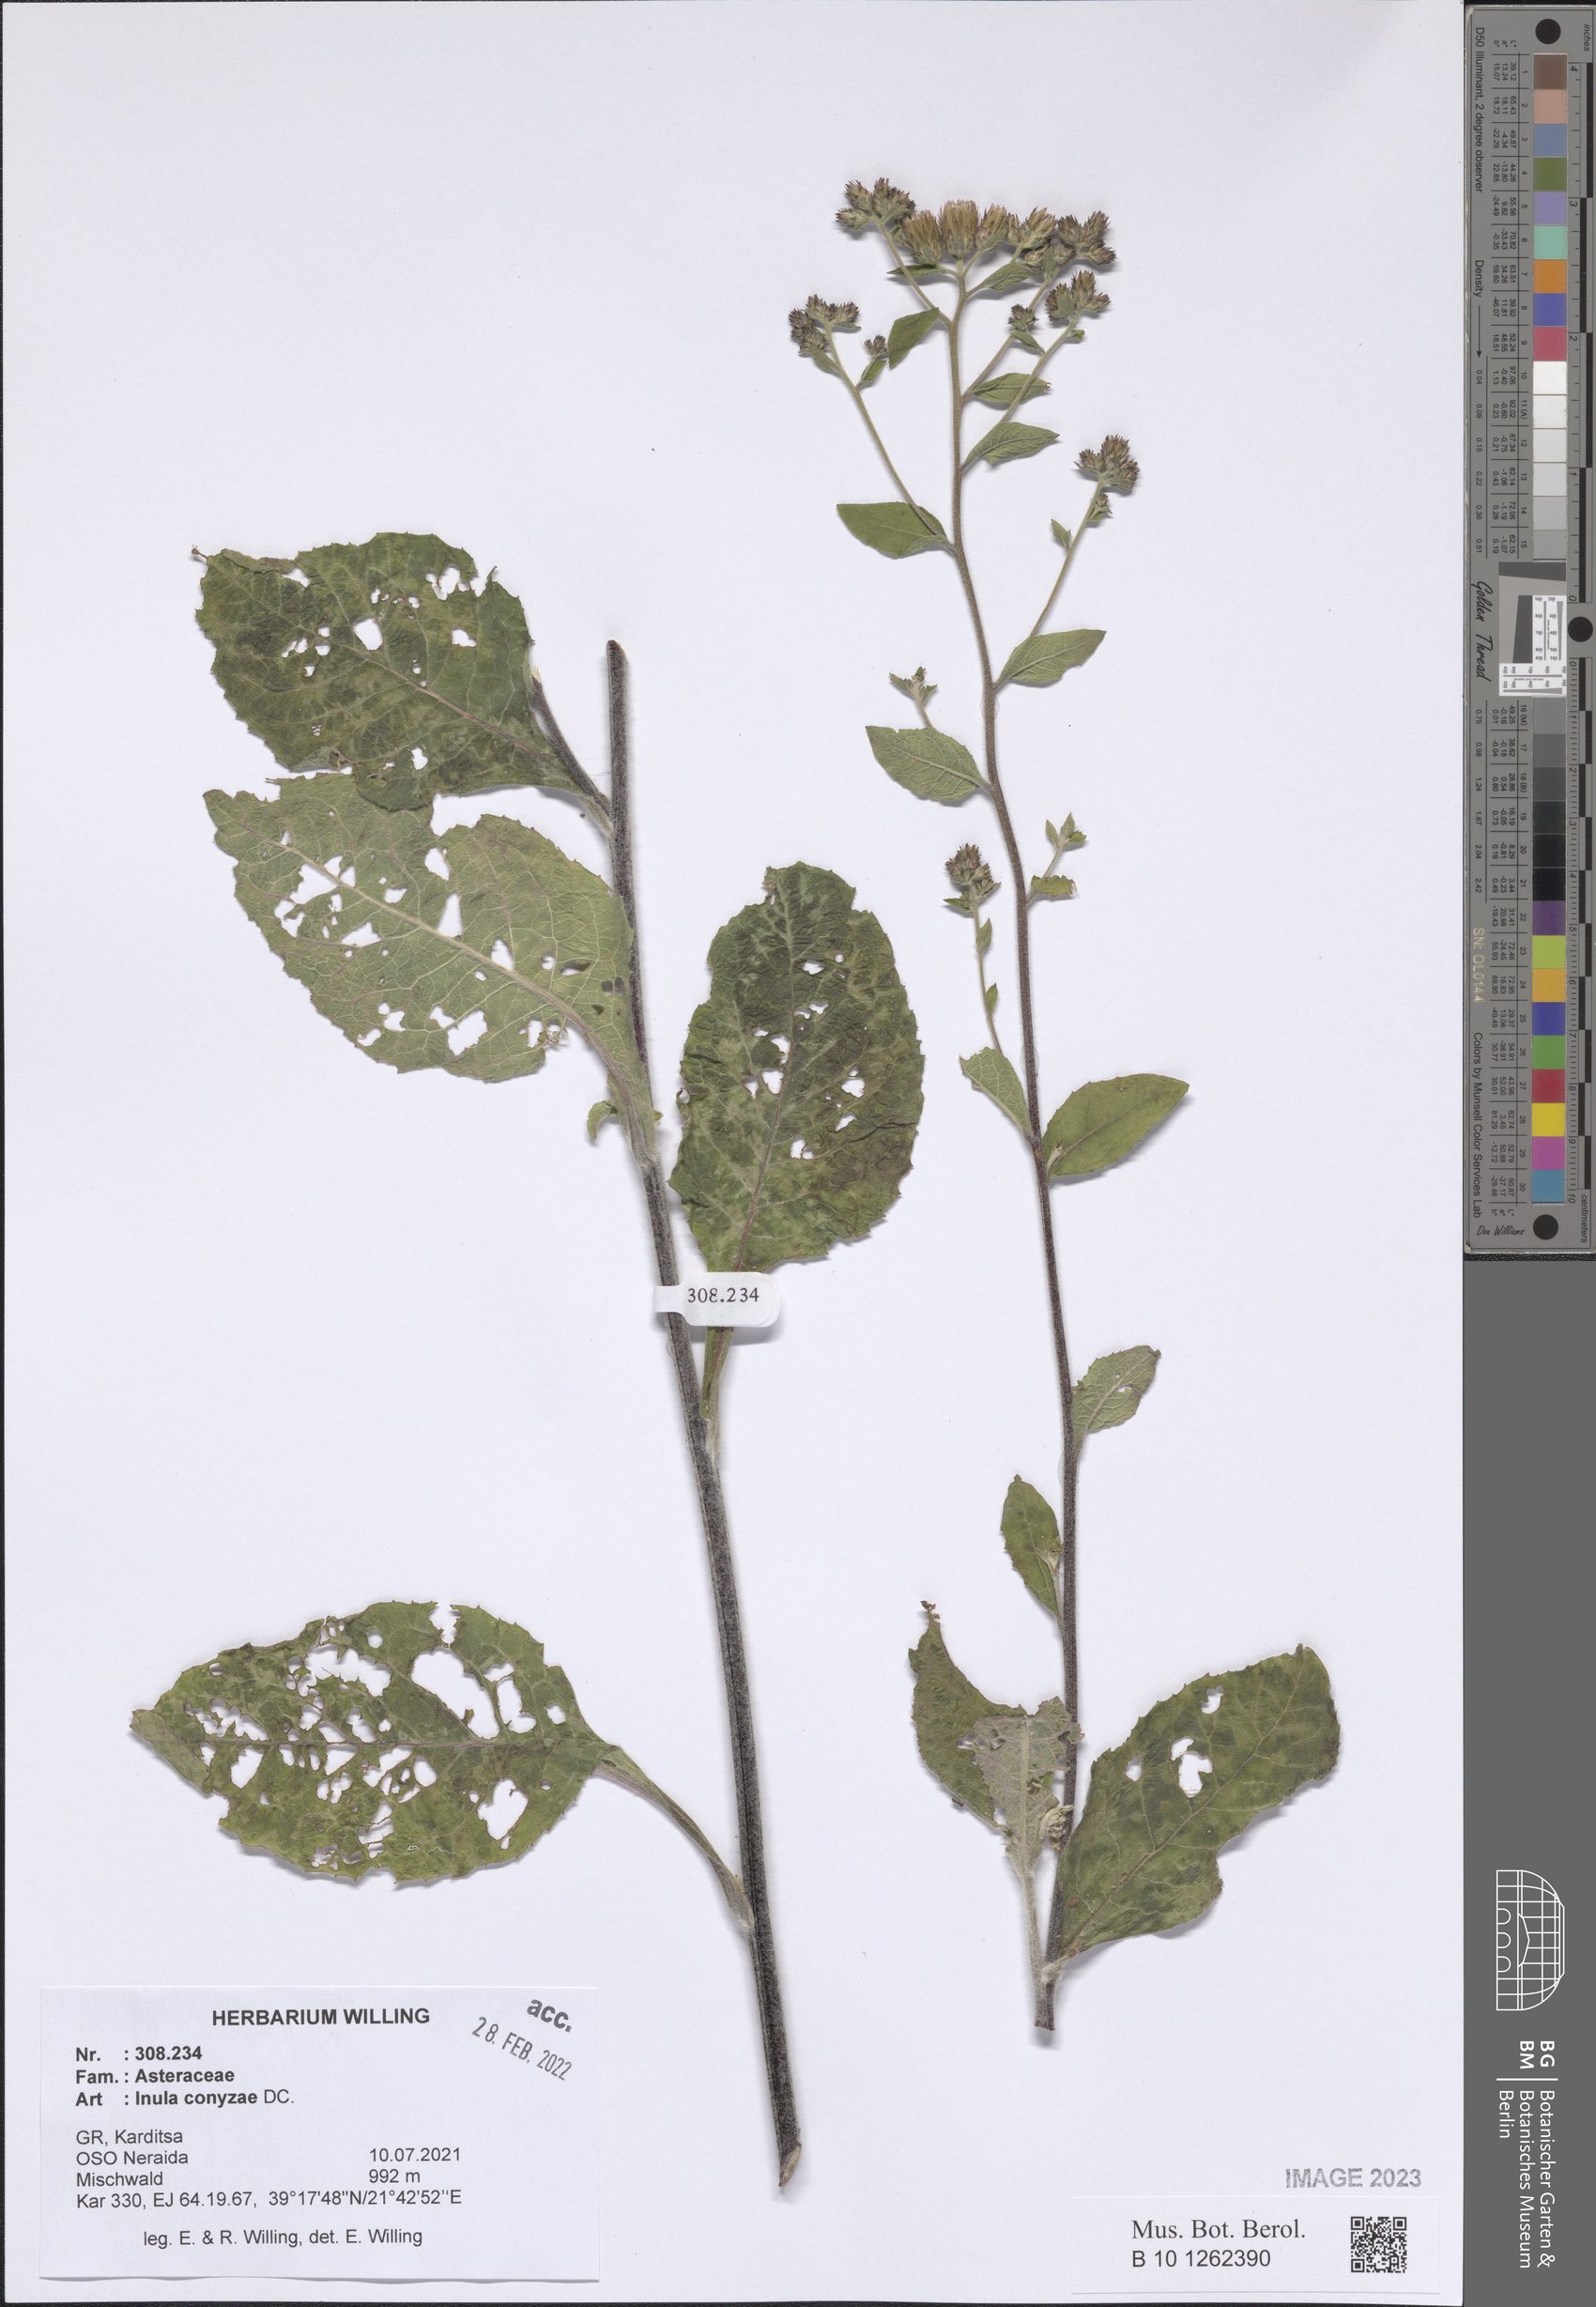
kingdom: Plantae
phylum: Tracheophyta
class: Magnoliopsida
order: Asterales
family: Asteraceae
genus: Pentanema
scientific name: Pentanema squarrosum
